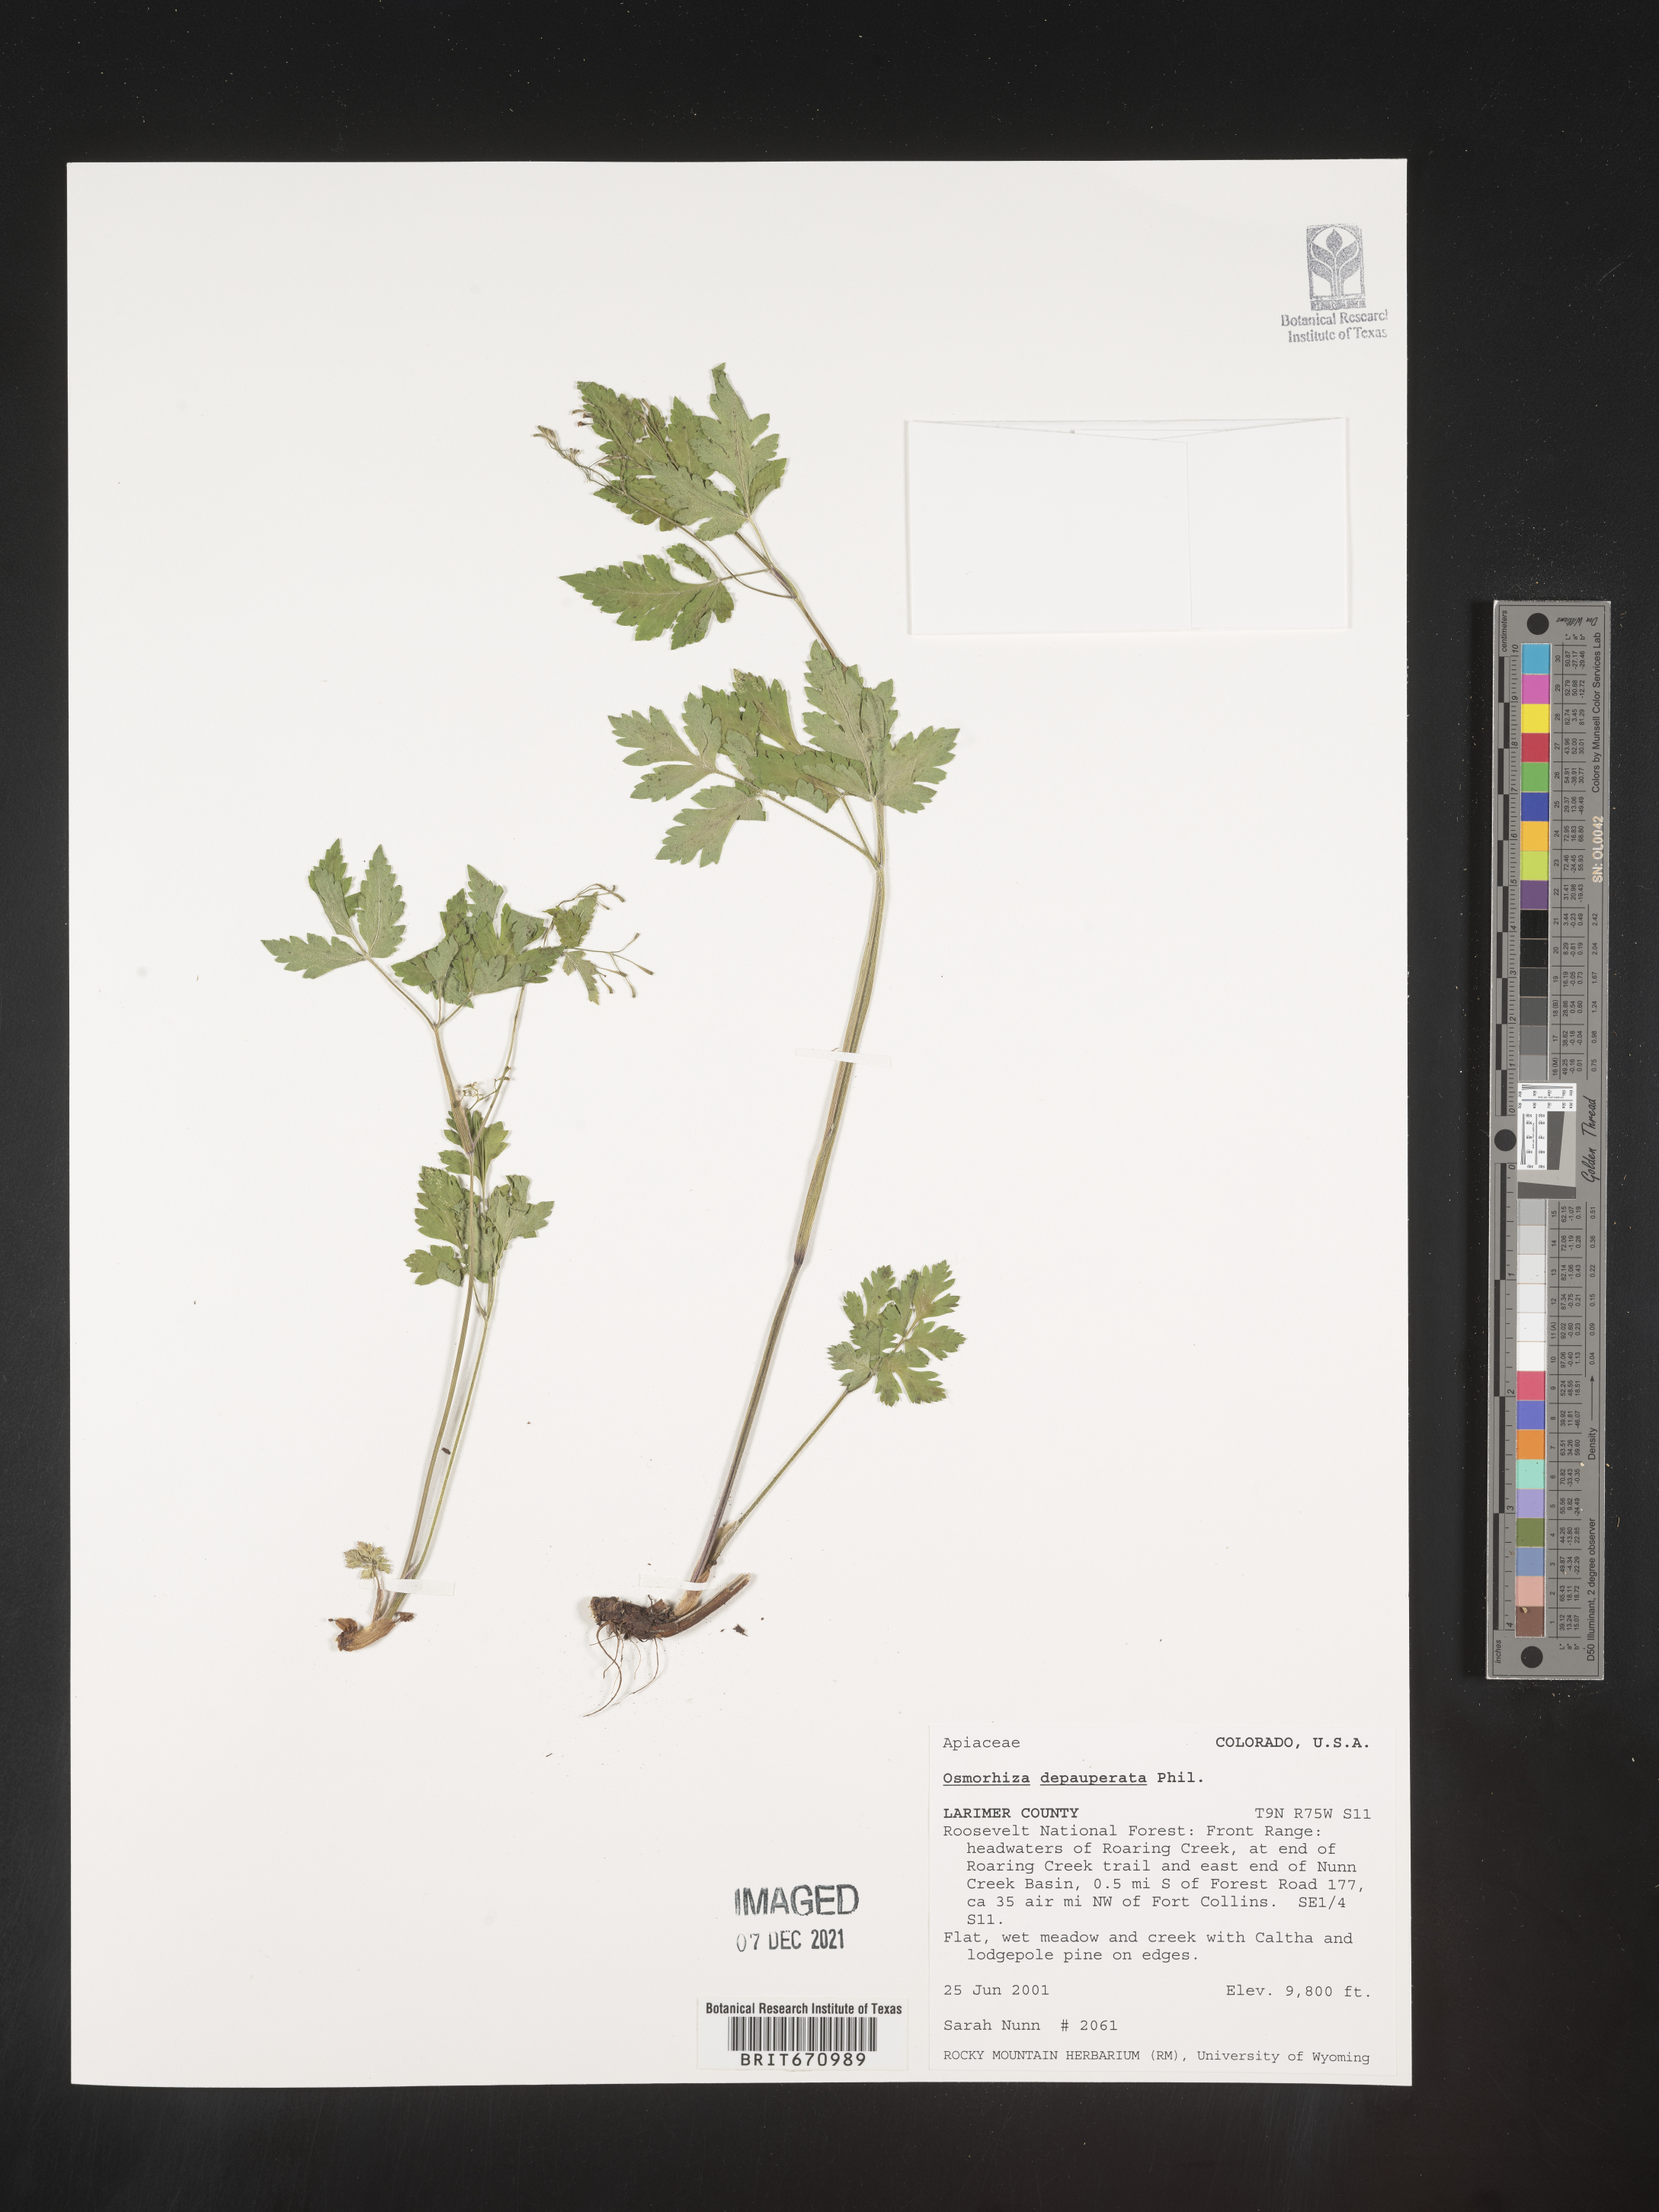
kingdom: Plantae
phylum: Tracheophyta
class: Magnoliopsida
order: Apiales
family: Apiaceae
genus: Osmorhiza
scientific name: Osmorhiza depauperata
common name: Blunt sweet cicely
